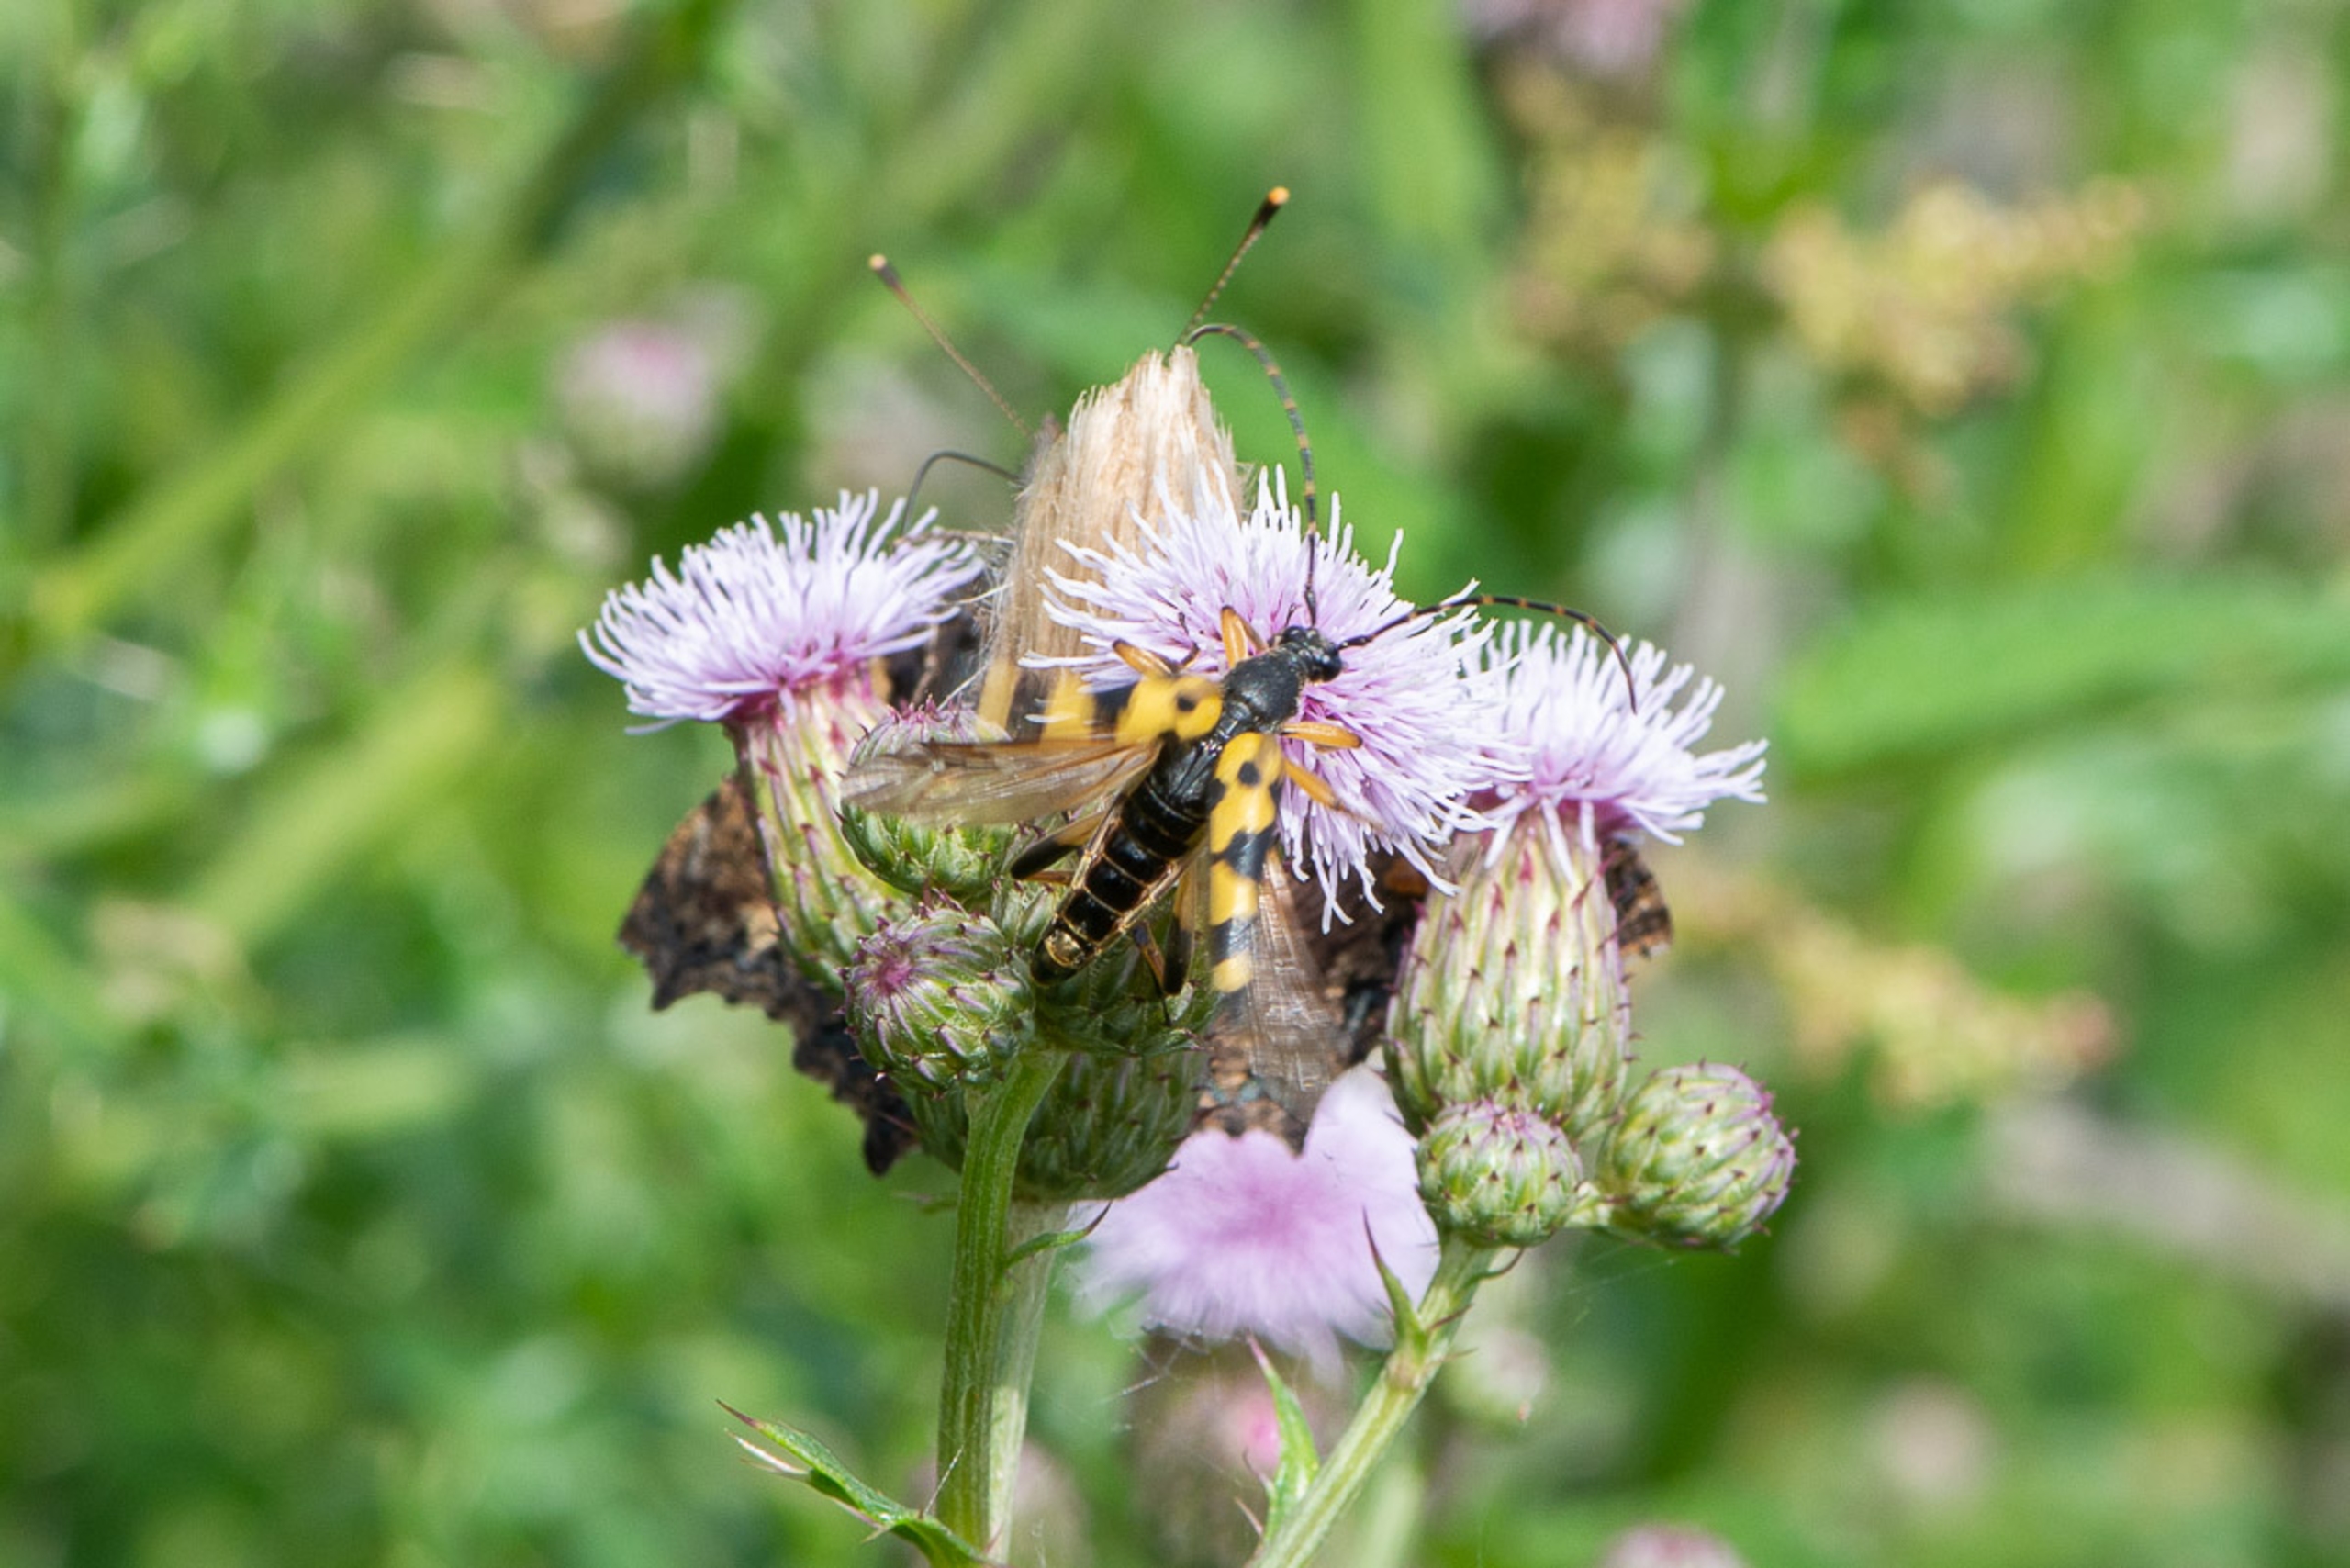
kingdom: Animalia
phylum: Arthropoda
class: Insecta
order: Coleoptera
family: Cerambycidae
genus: Rutpela
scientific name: Rutpela maculata
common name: Sydlig blomsterbuk
